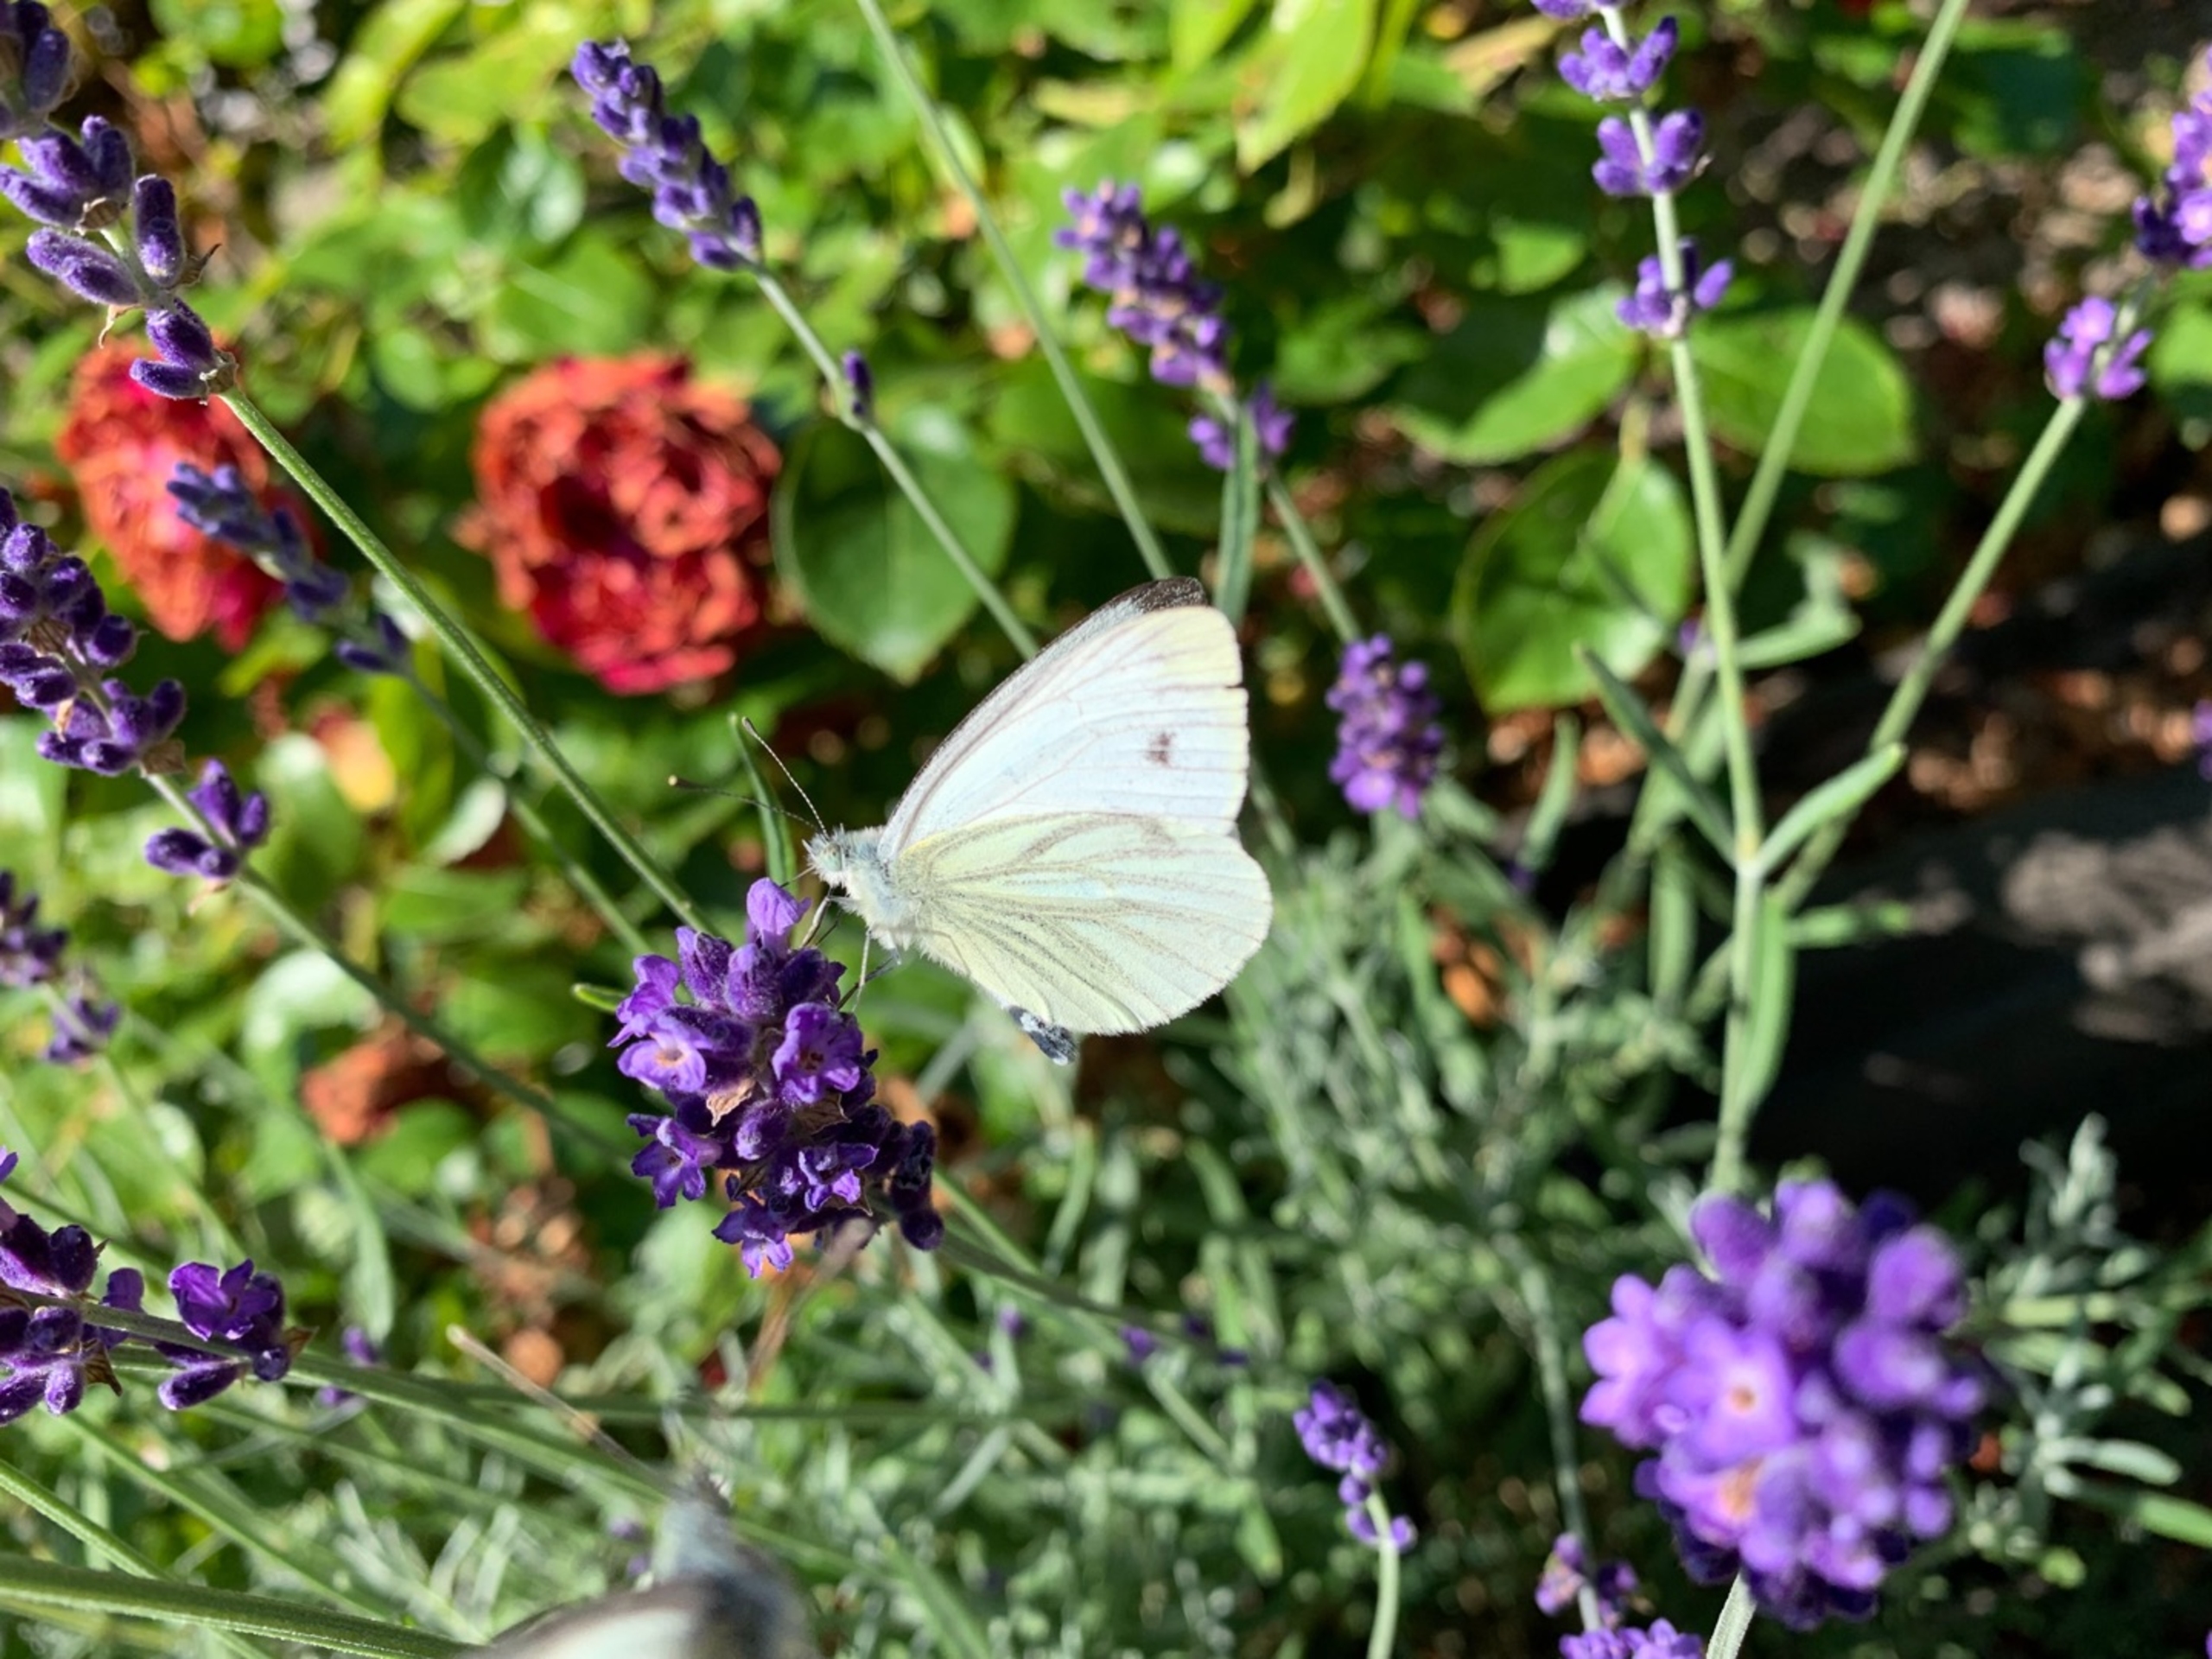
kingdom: Animalia
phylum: Arthropoda
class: Insecta
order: Lepidoptera
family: Pieridae
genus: Pieris
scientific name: Pieris napi
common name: Grønåret kålsommerfugl
